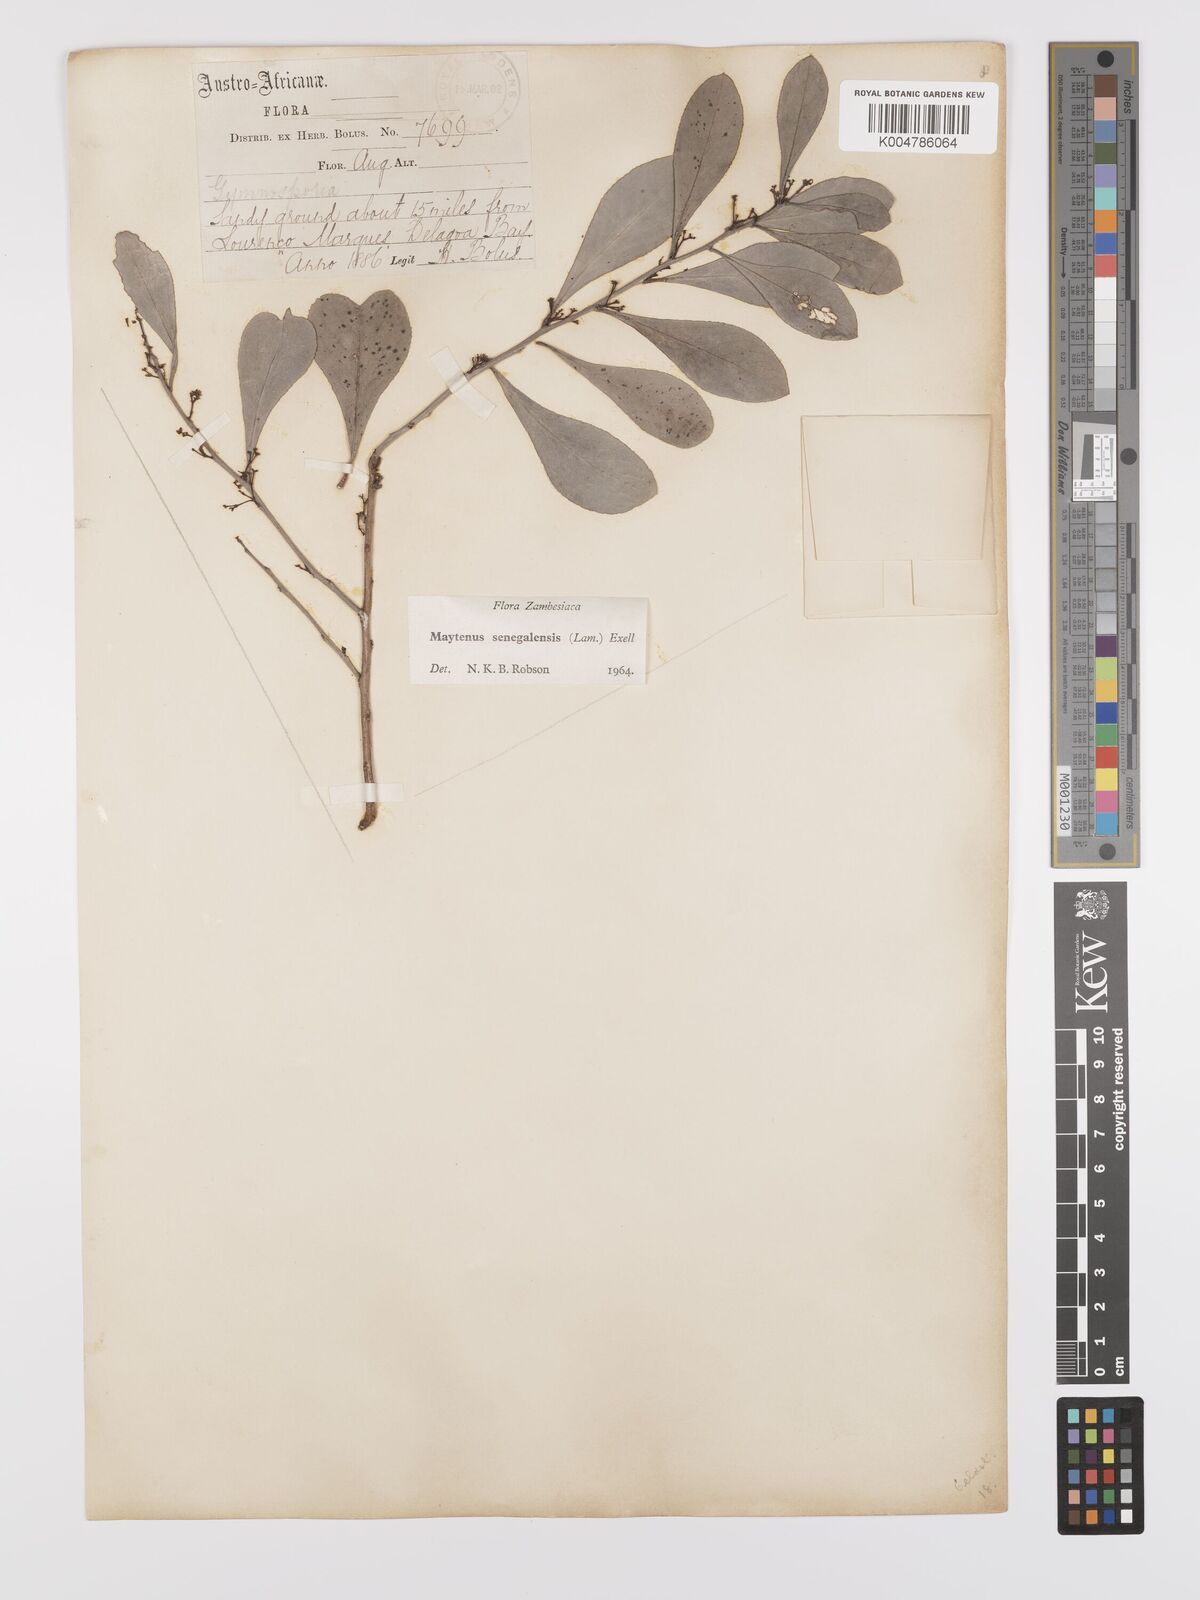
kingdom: Plantae
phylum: Tracheophyta
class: Magnoliopsida
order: Celastrales
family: Celastraceae
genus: Gymnosporia
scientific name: Gymnosporia senegalensis
